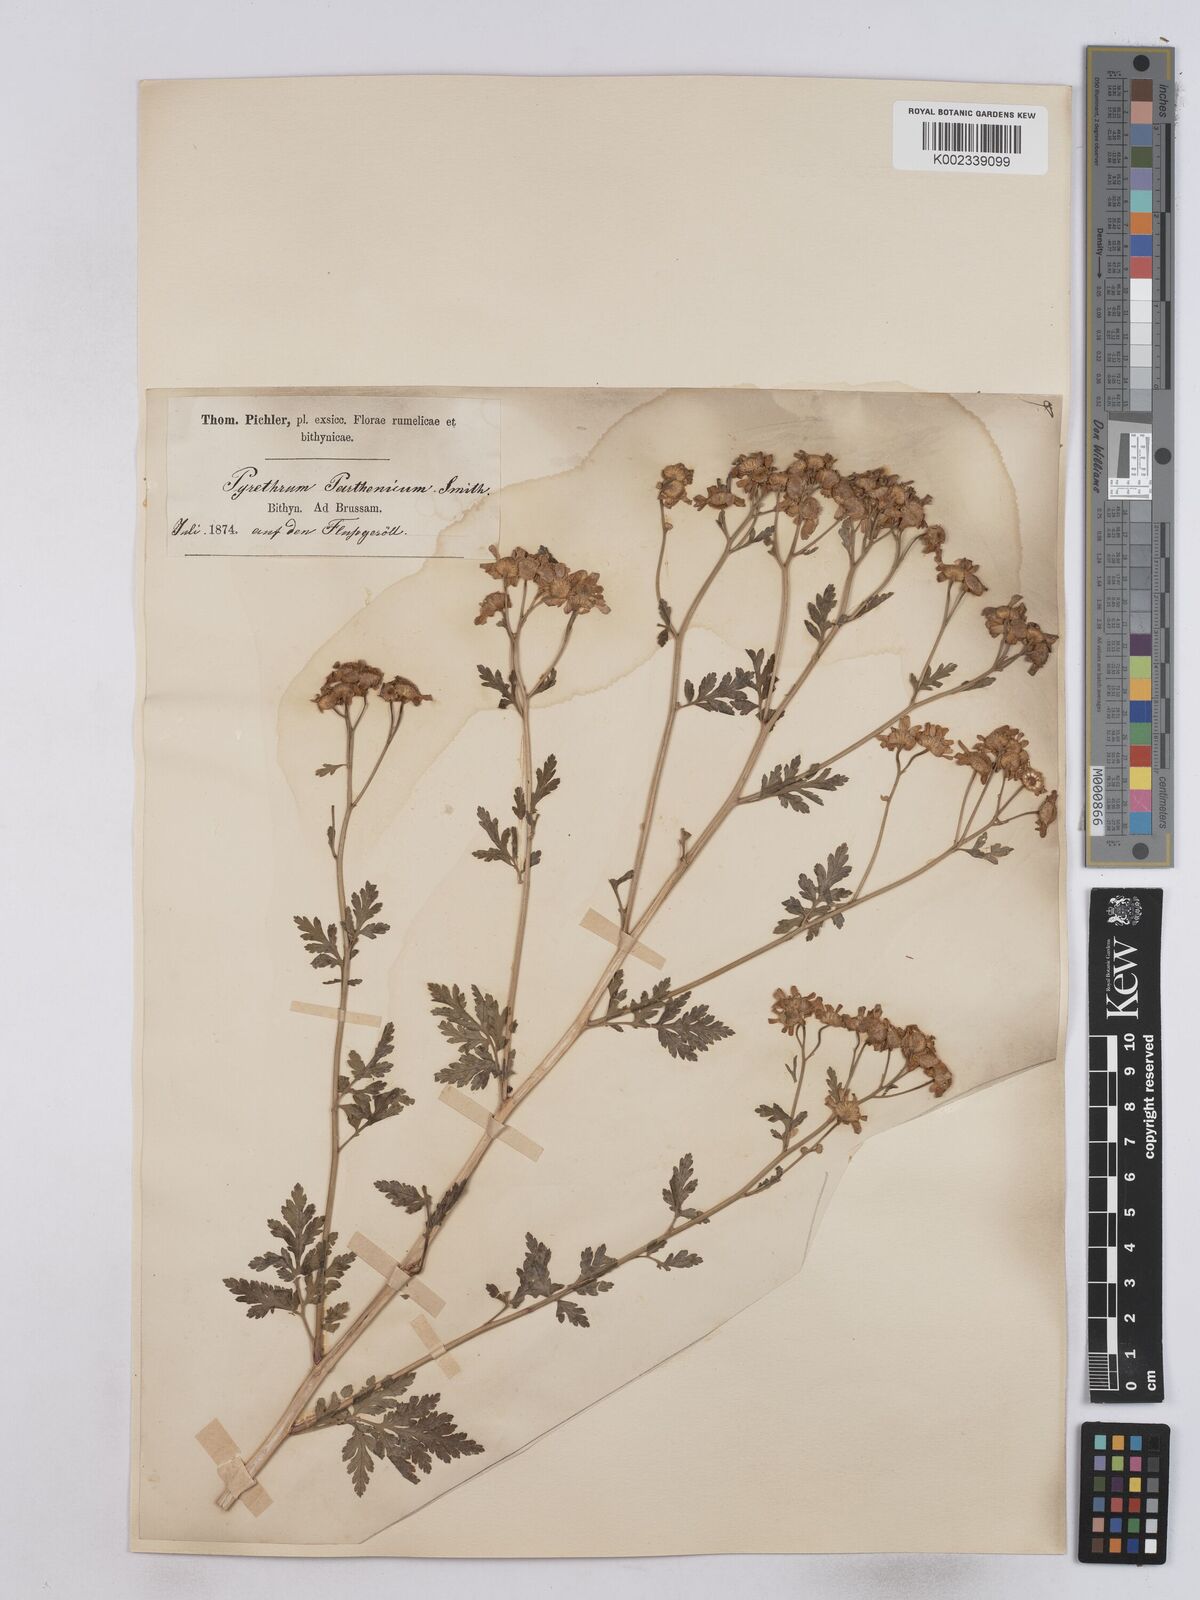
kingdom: Plantae
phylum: Tracheophyta
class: Magnoliopsida
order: Asterales
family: Asteraceae
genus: Tanacetum
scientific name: Tanacetum parthenium
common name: Feverfew
